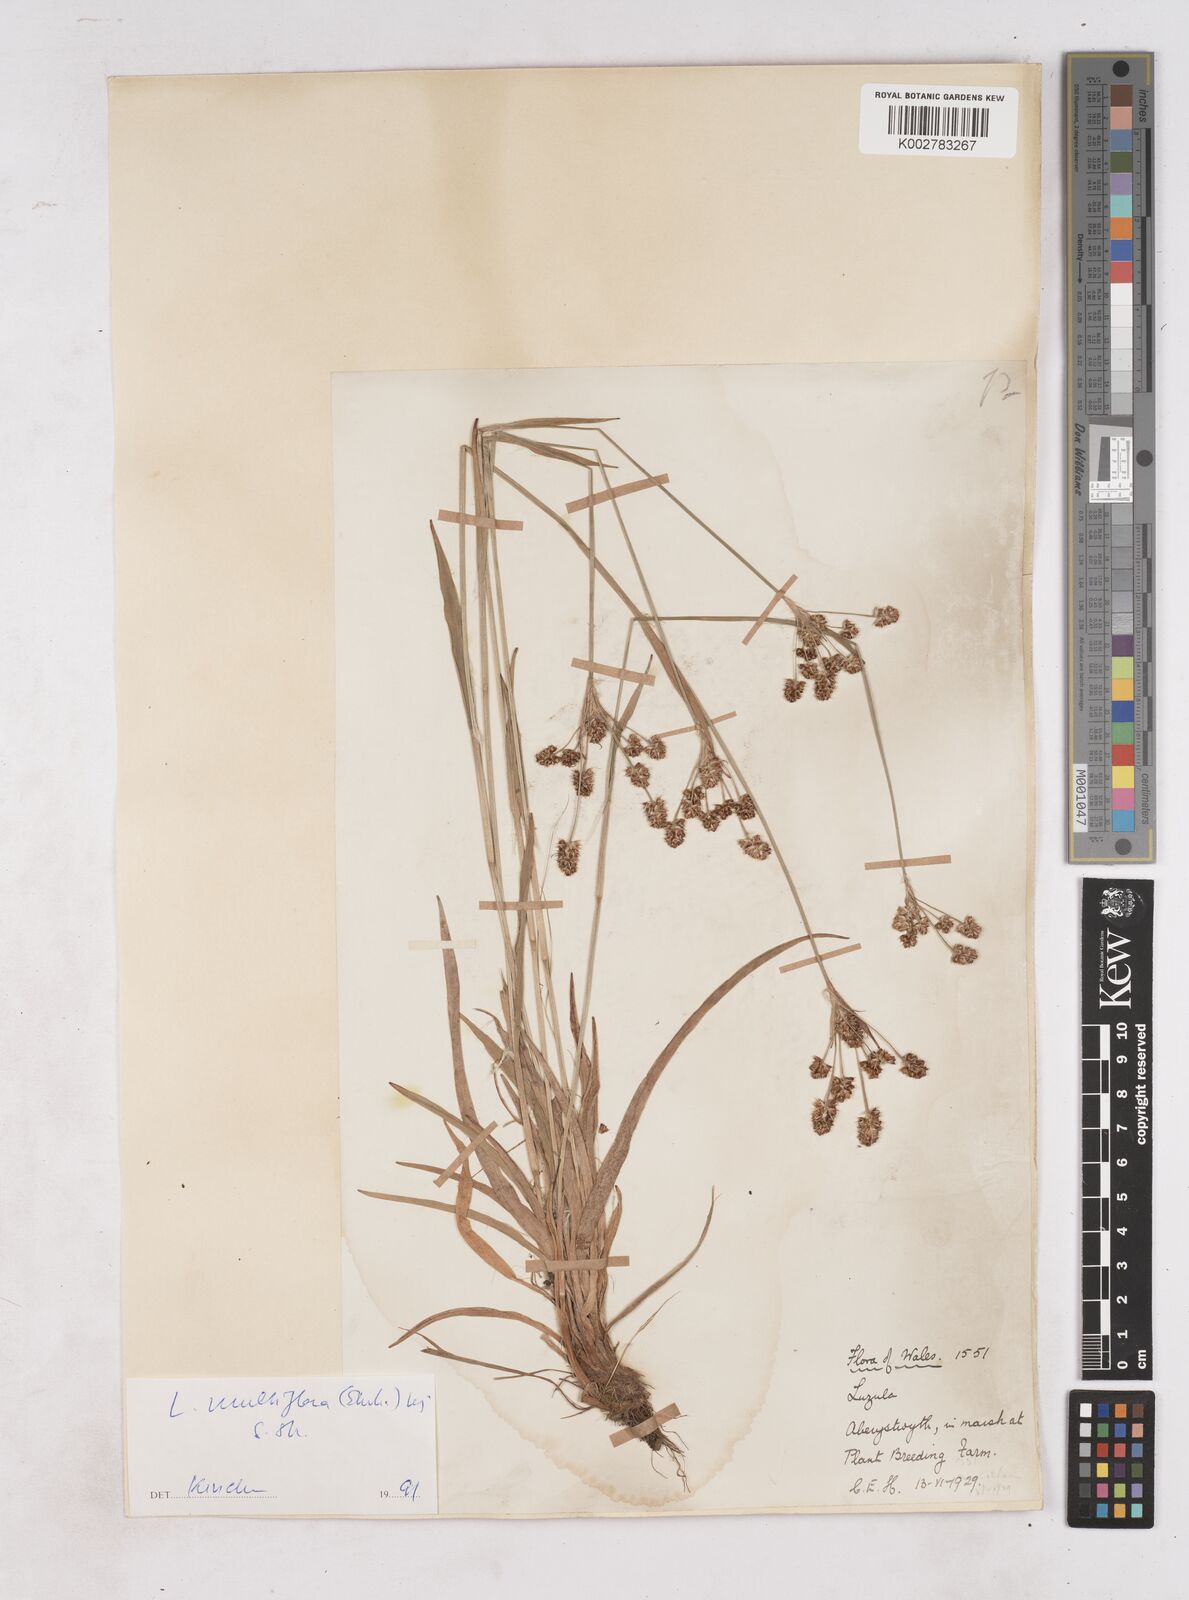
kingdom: Plantae
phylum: Tracheophyta
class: Liliopsida
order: Poales
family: Juncaceae
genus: Luzula
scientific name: Luzula multiflora
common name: Heath wood-rush
